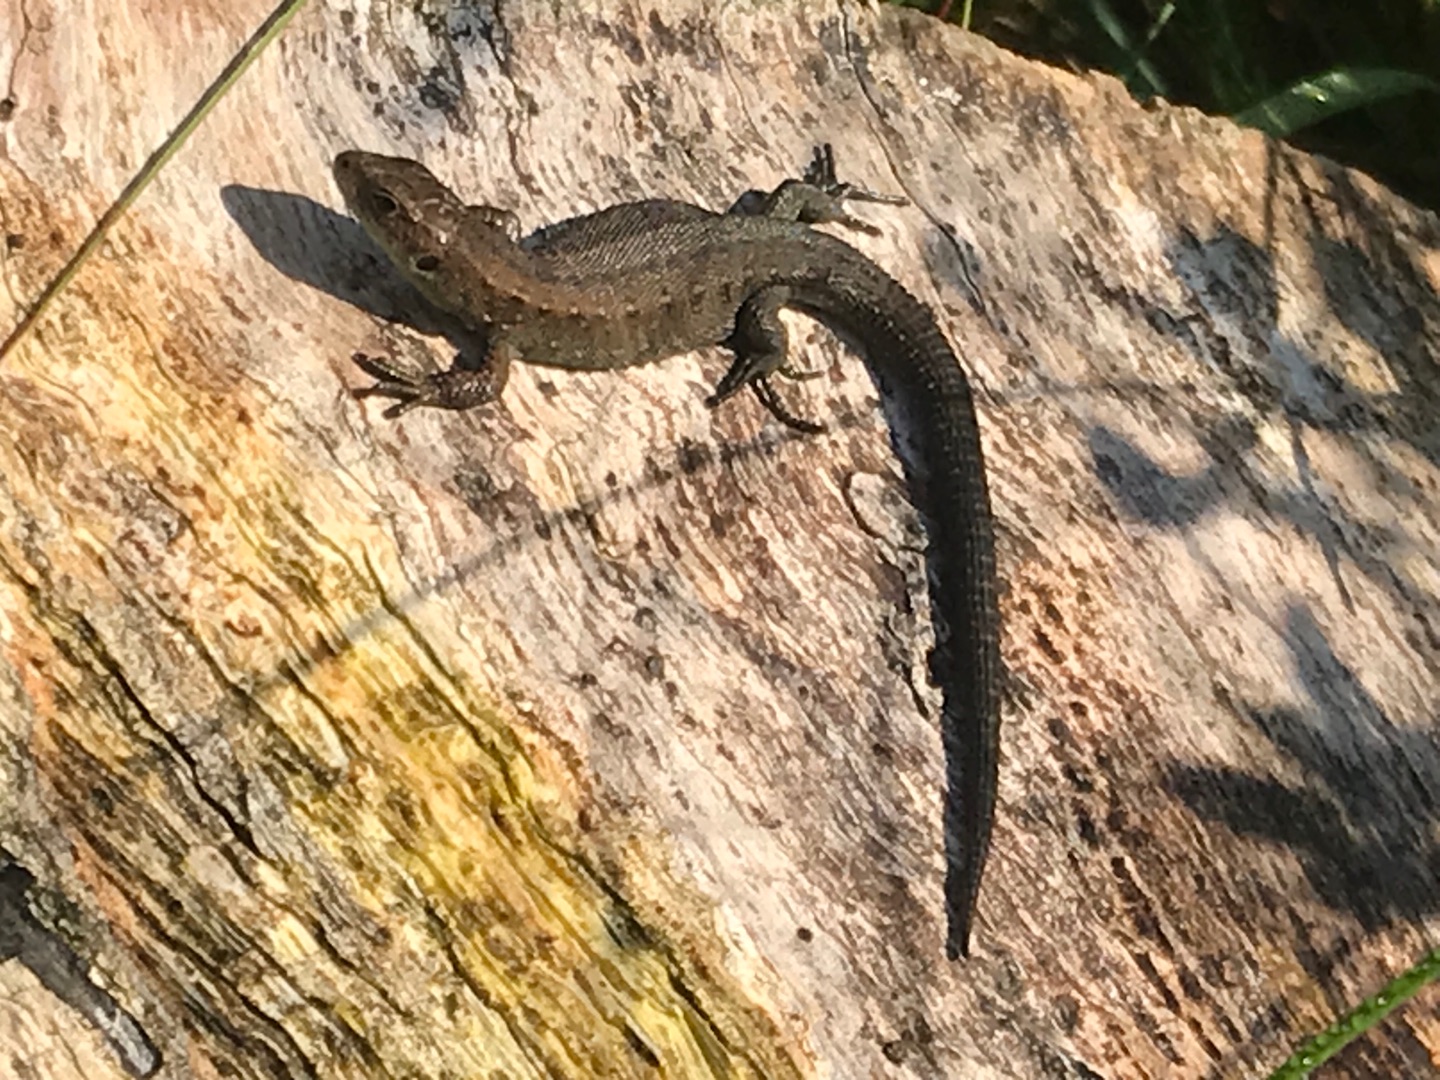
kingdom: Animalia
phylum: Chordata
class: Squamata
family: Lacertidae
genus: Zootoca
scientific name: Zootoca vivipara
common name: Skovfirben
